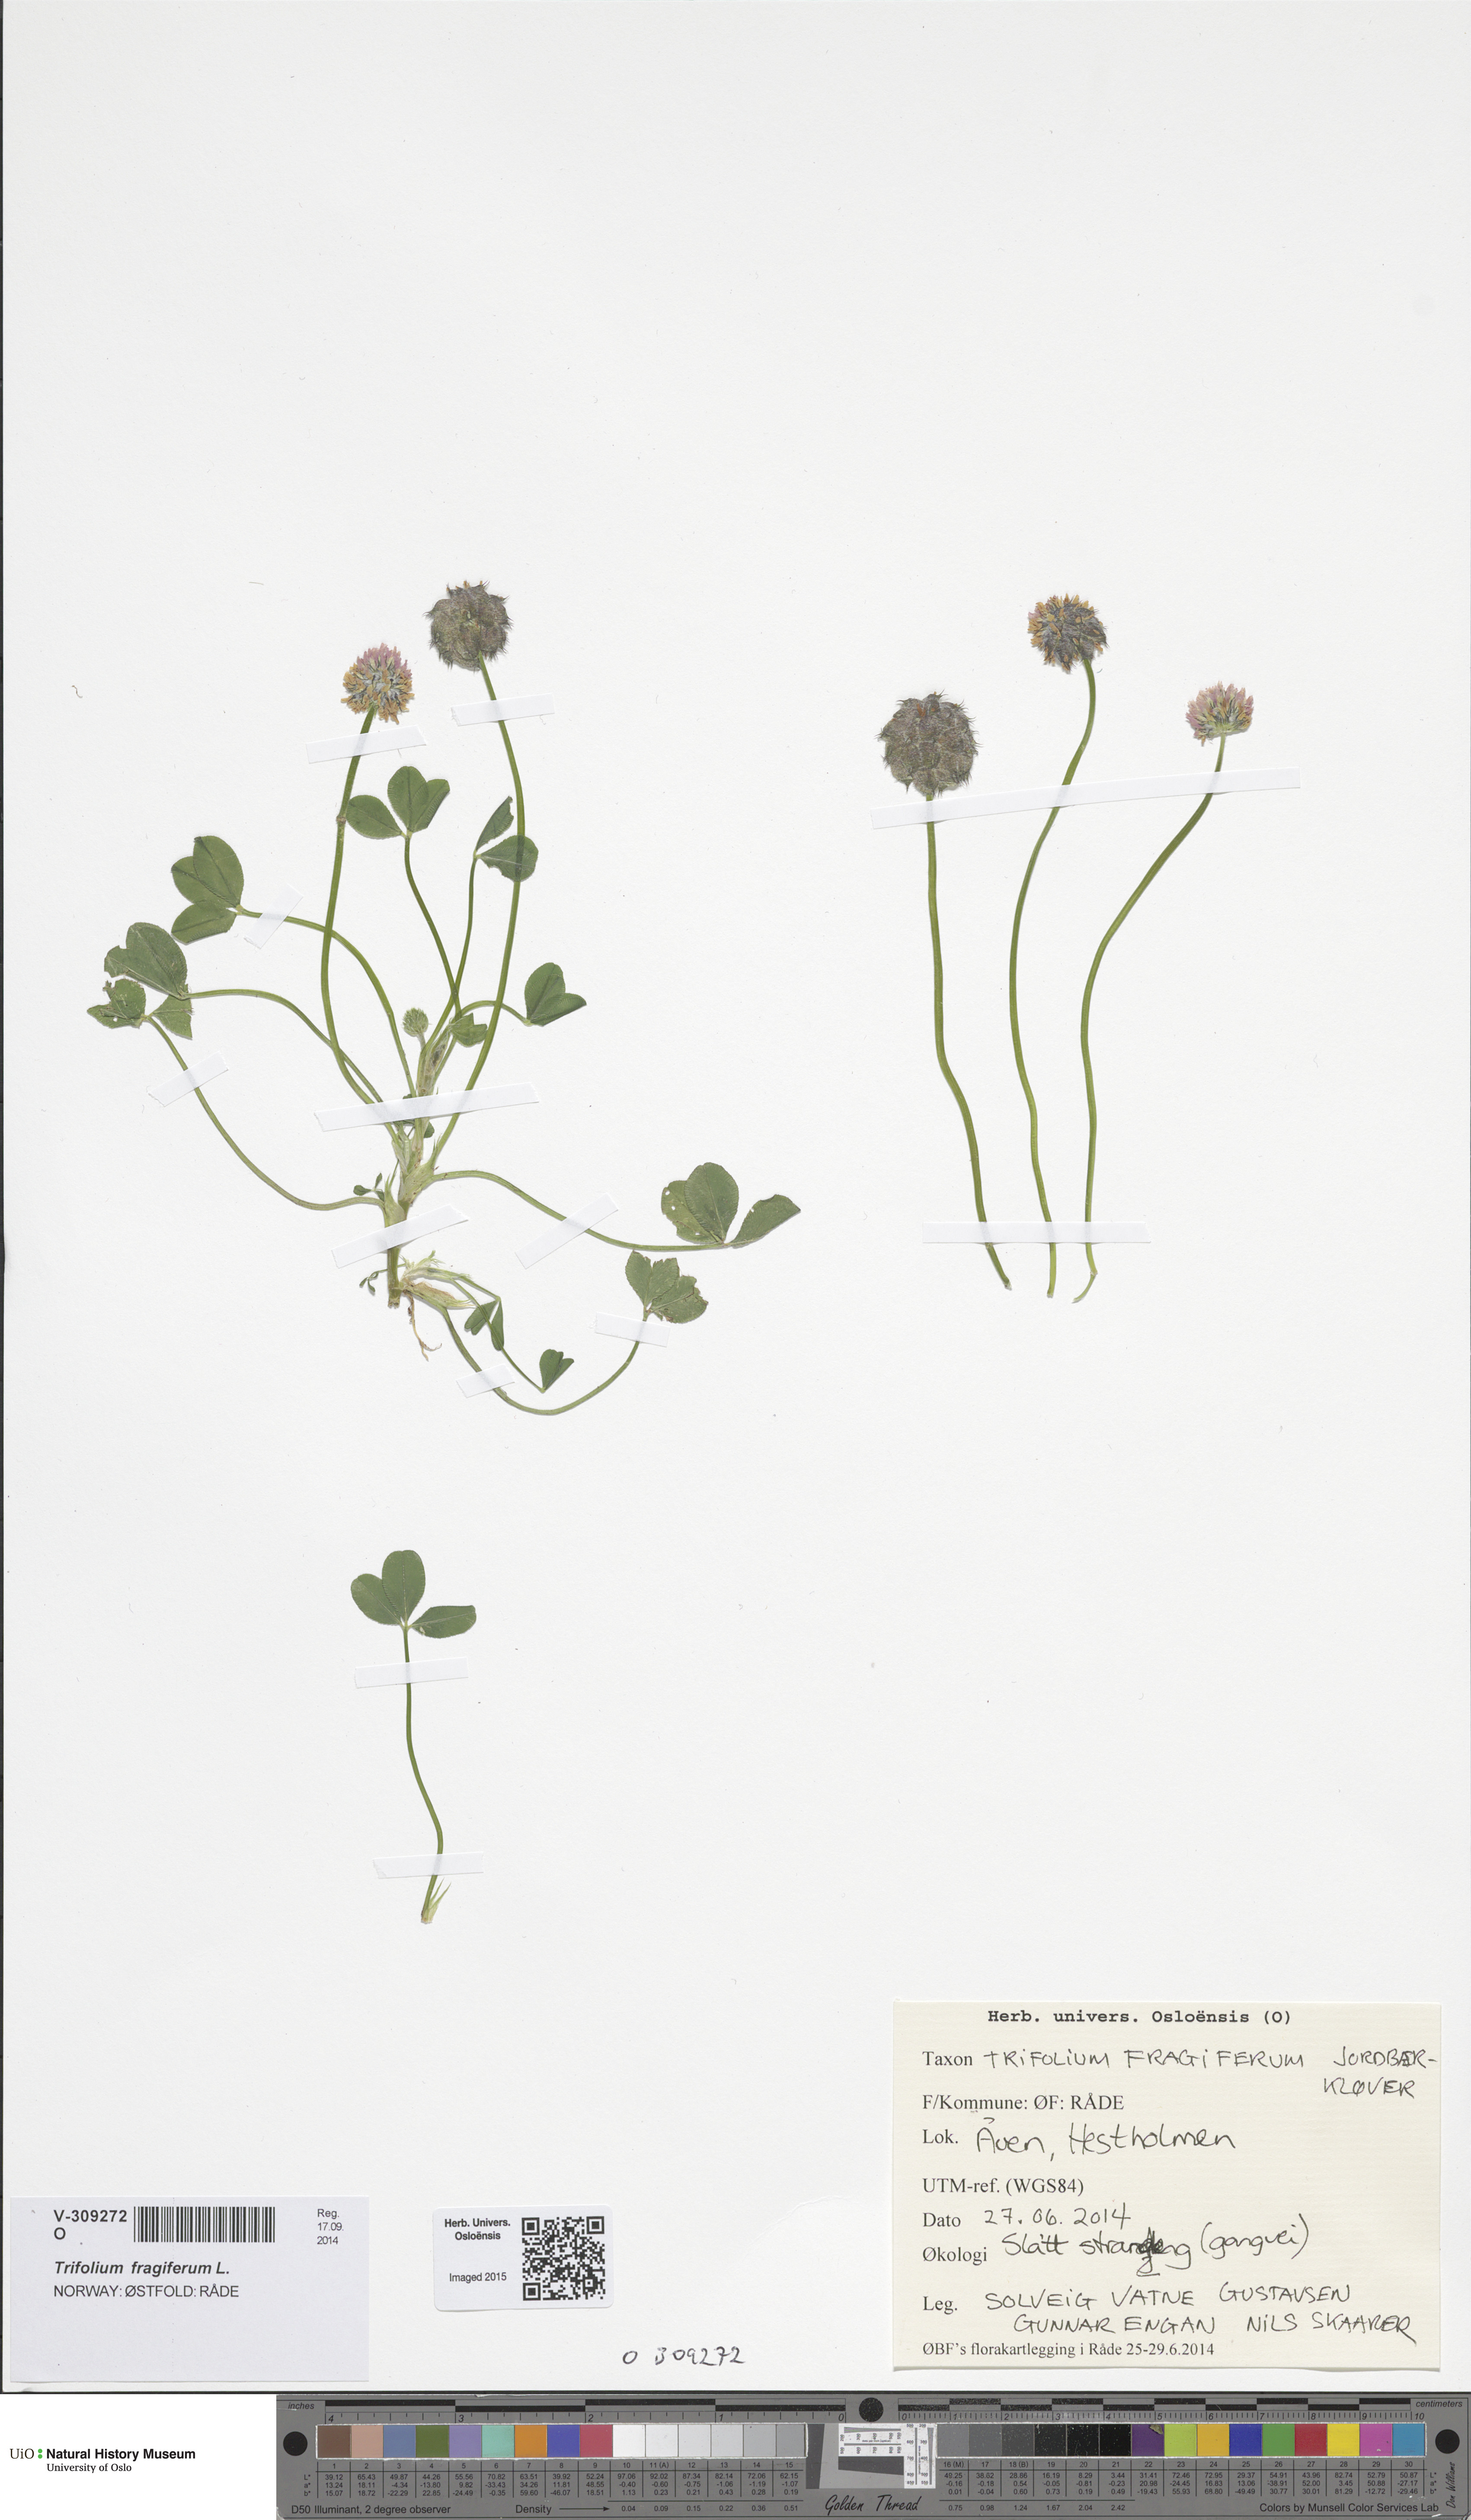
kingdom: Plantae
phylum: Tracheophyta
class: Magnoliopsida
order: Fabales
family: Fabaceae
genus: Trifolium
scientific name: Trifolium fragiferum
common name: Strawberry clover
